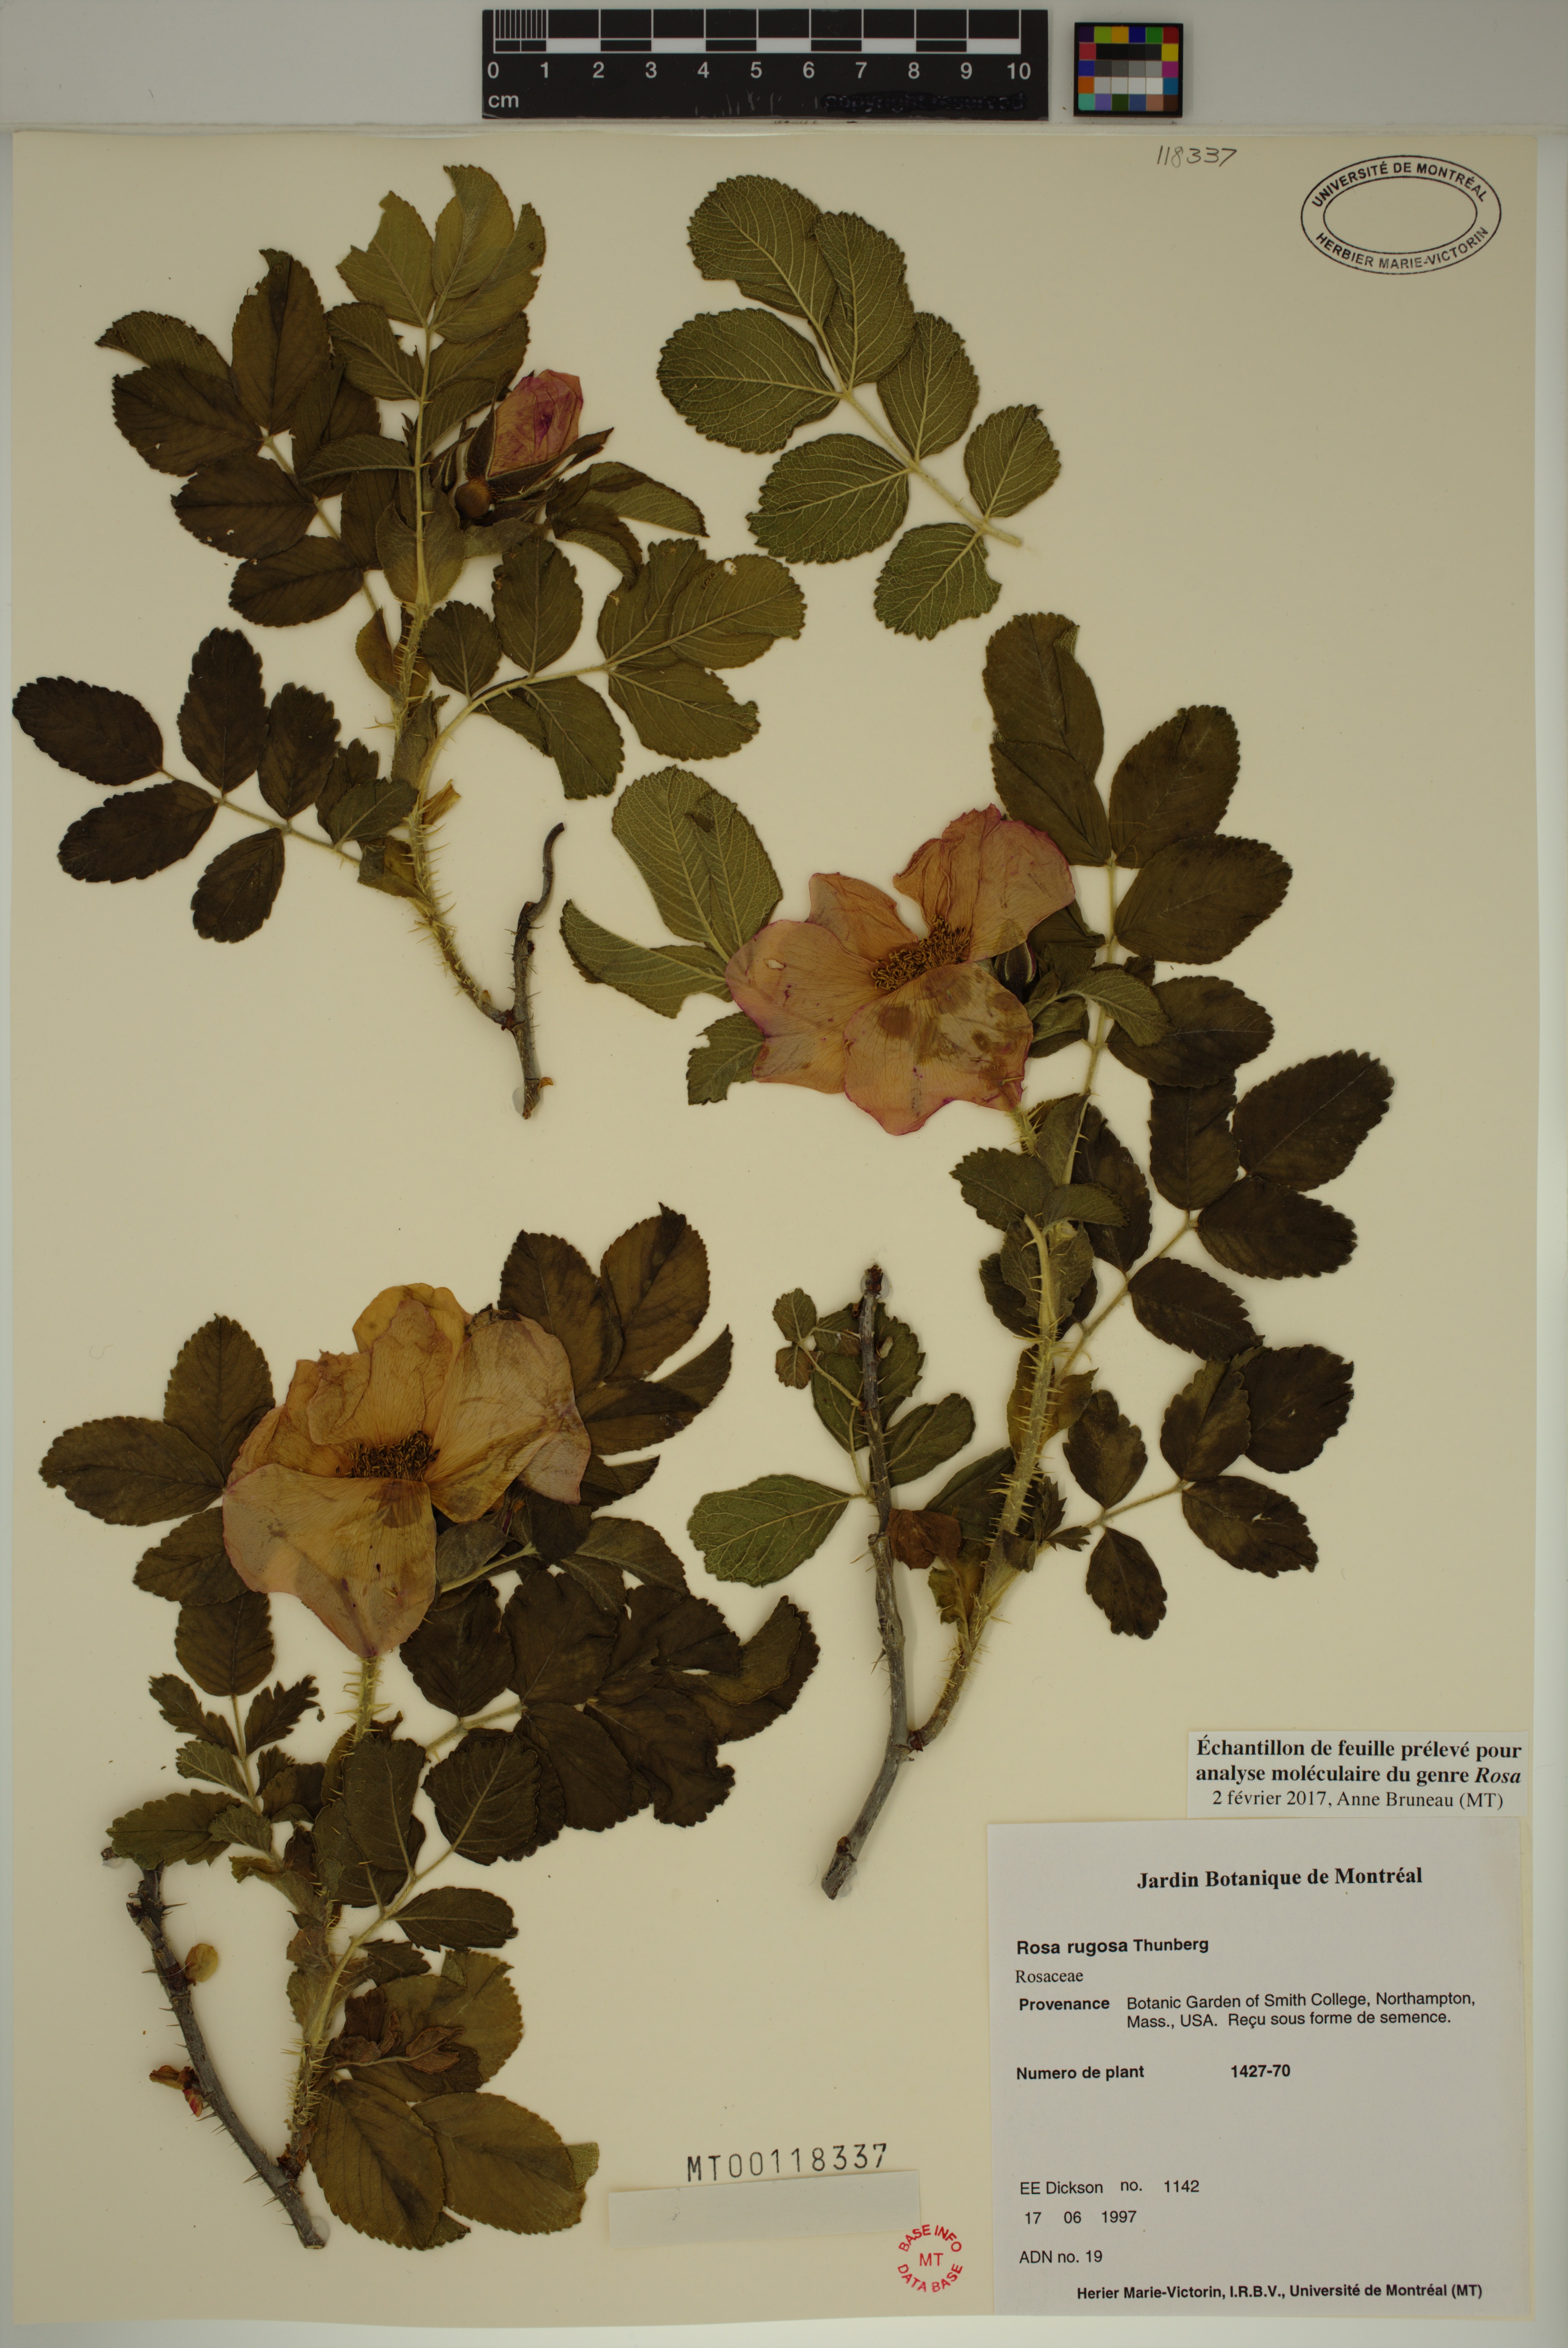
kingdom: Plantae
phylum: Tracheophyta
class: Magnoliopsida
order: Rosales
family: Rosaceae
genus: Rosa
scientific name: Rosa rugosa
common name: Japanese rose
